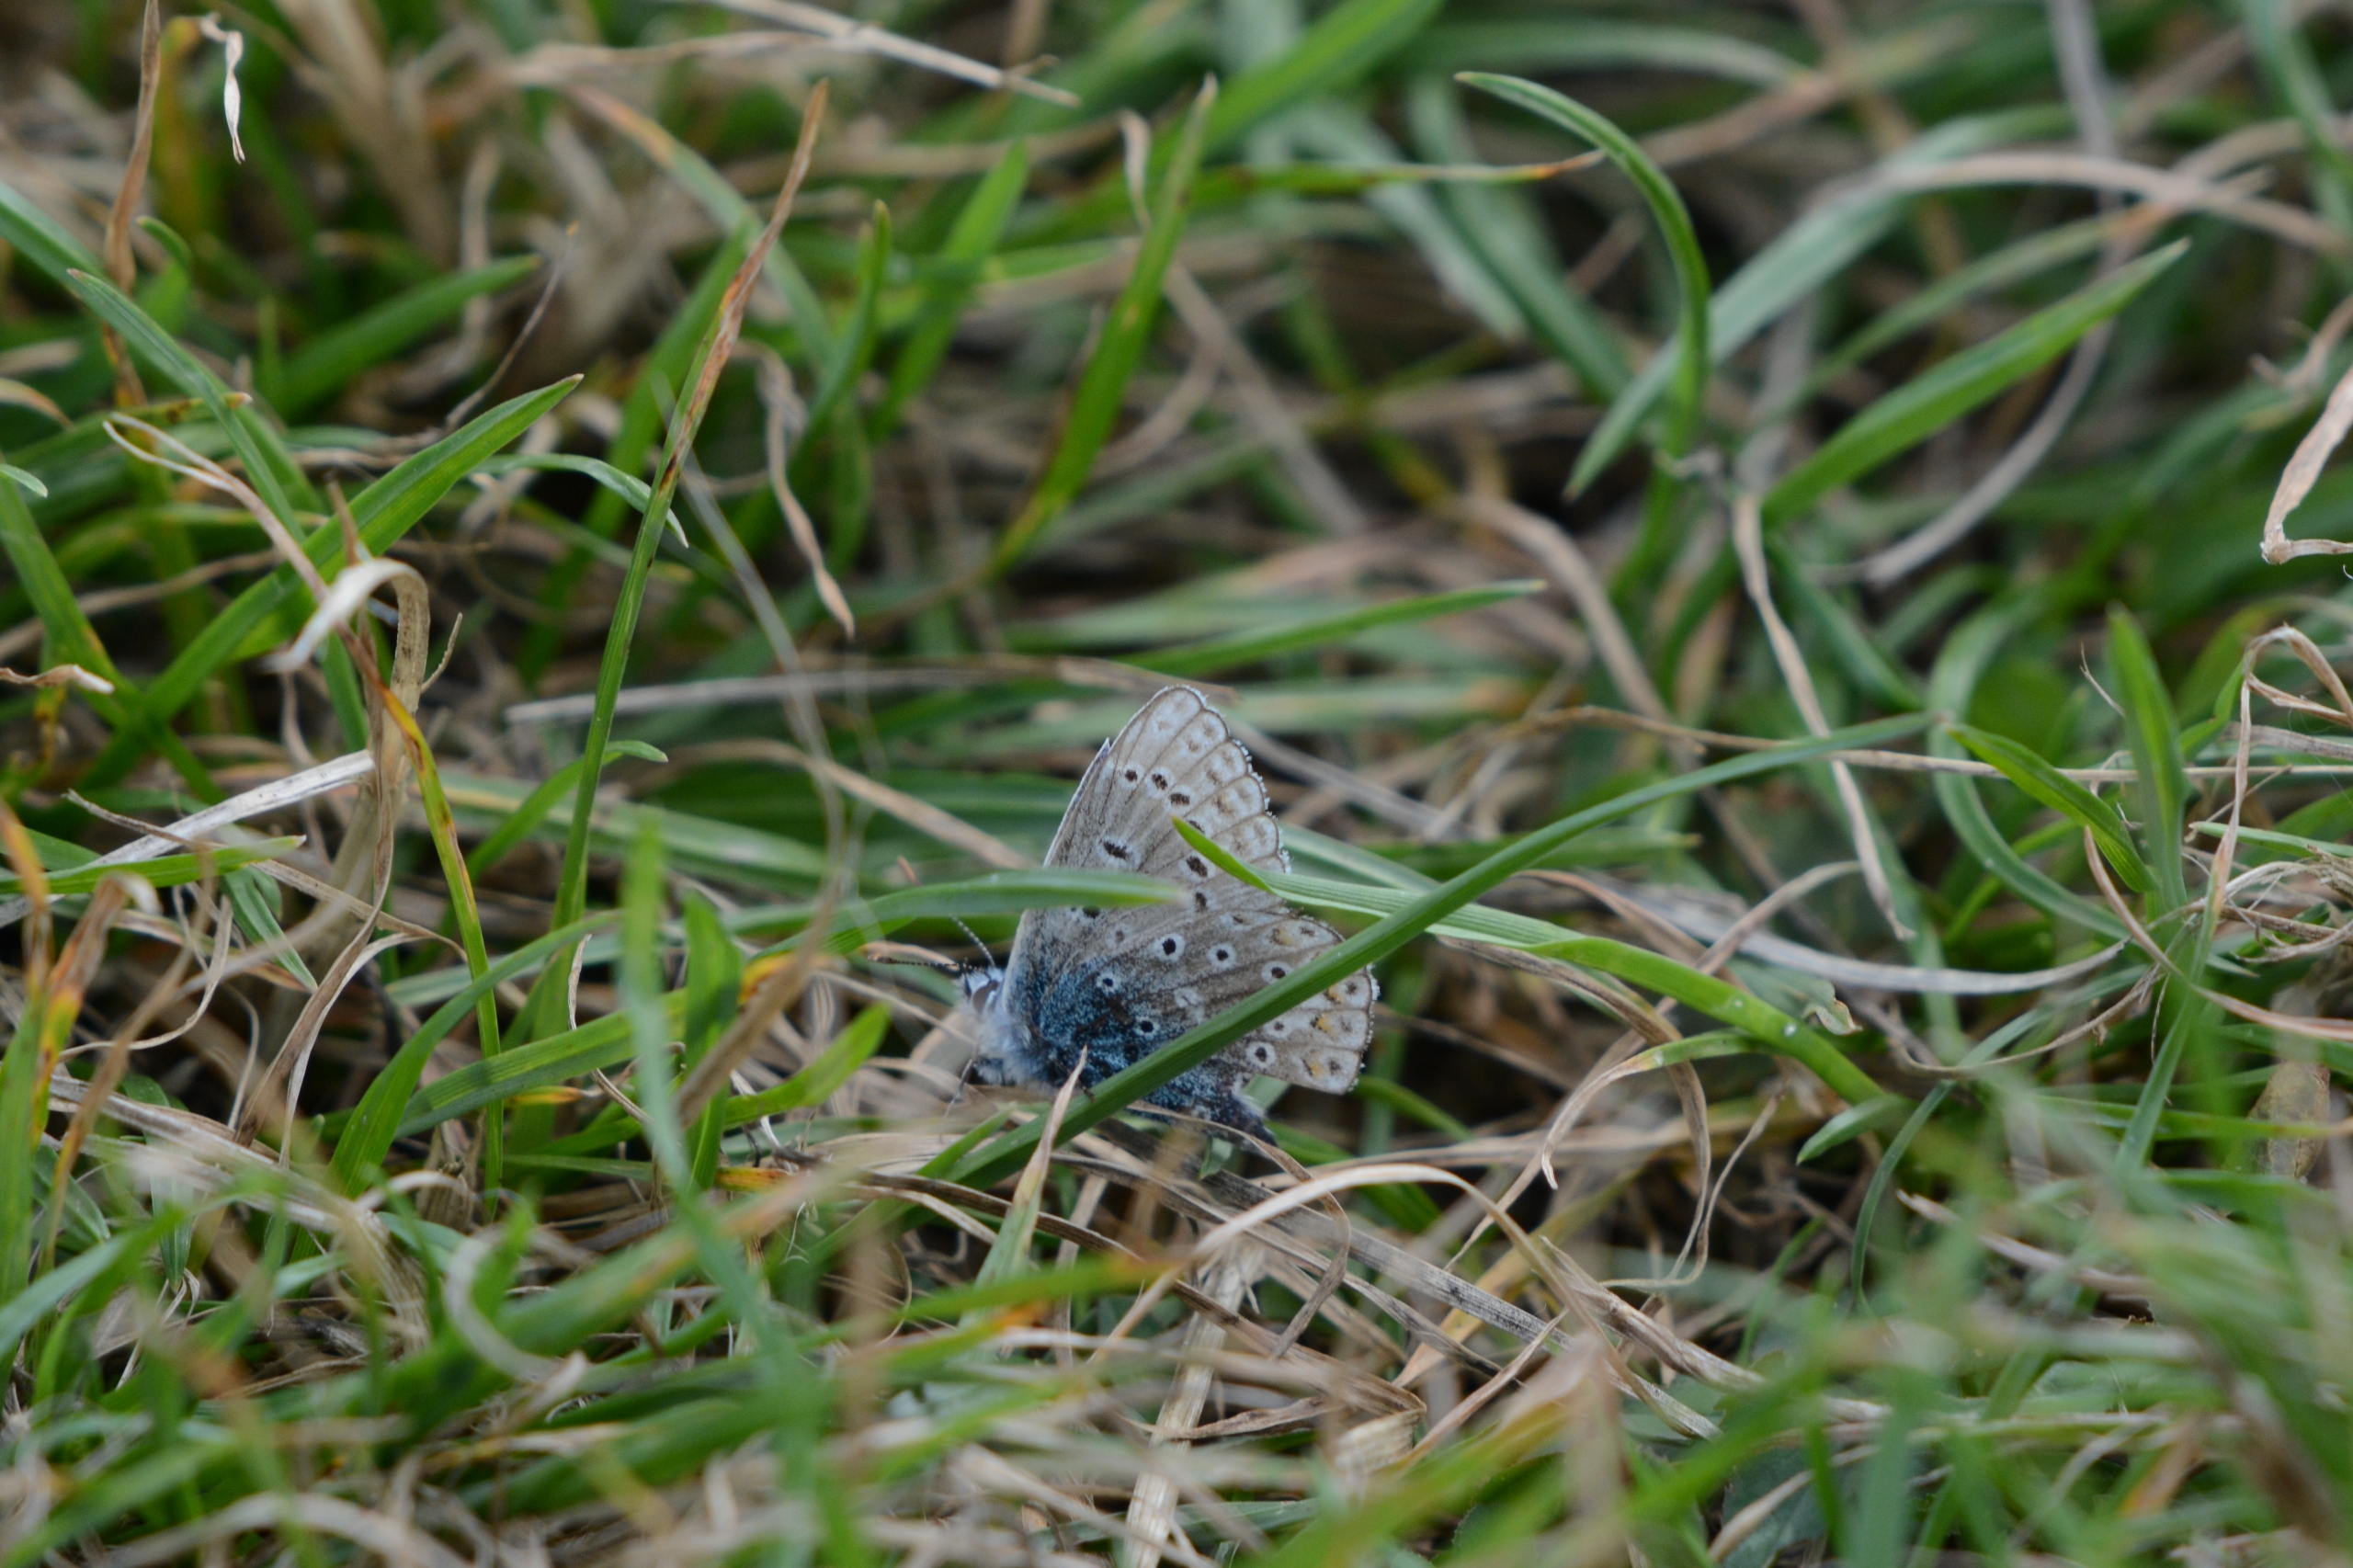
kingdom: Animalia
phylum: Arthropoda
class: Insecta
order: Lepidoptera
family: Lycaenidae
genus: Polyommatus
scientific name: Polyommatus icarus
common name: Almindelig blåfugl
